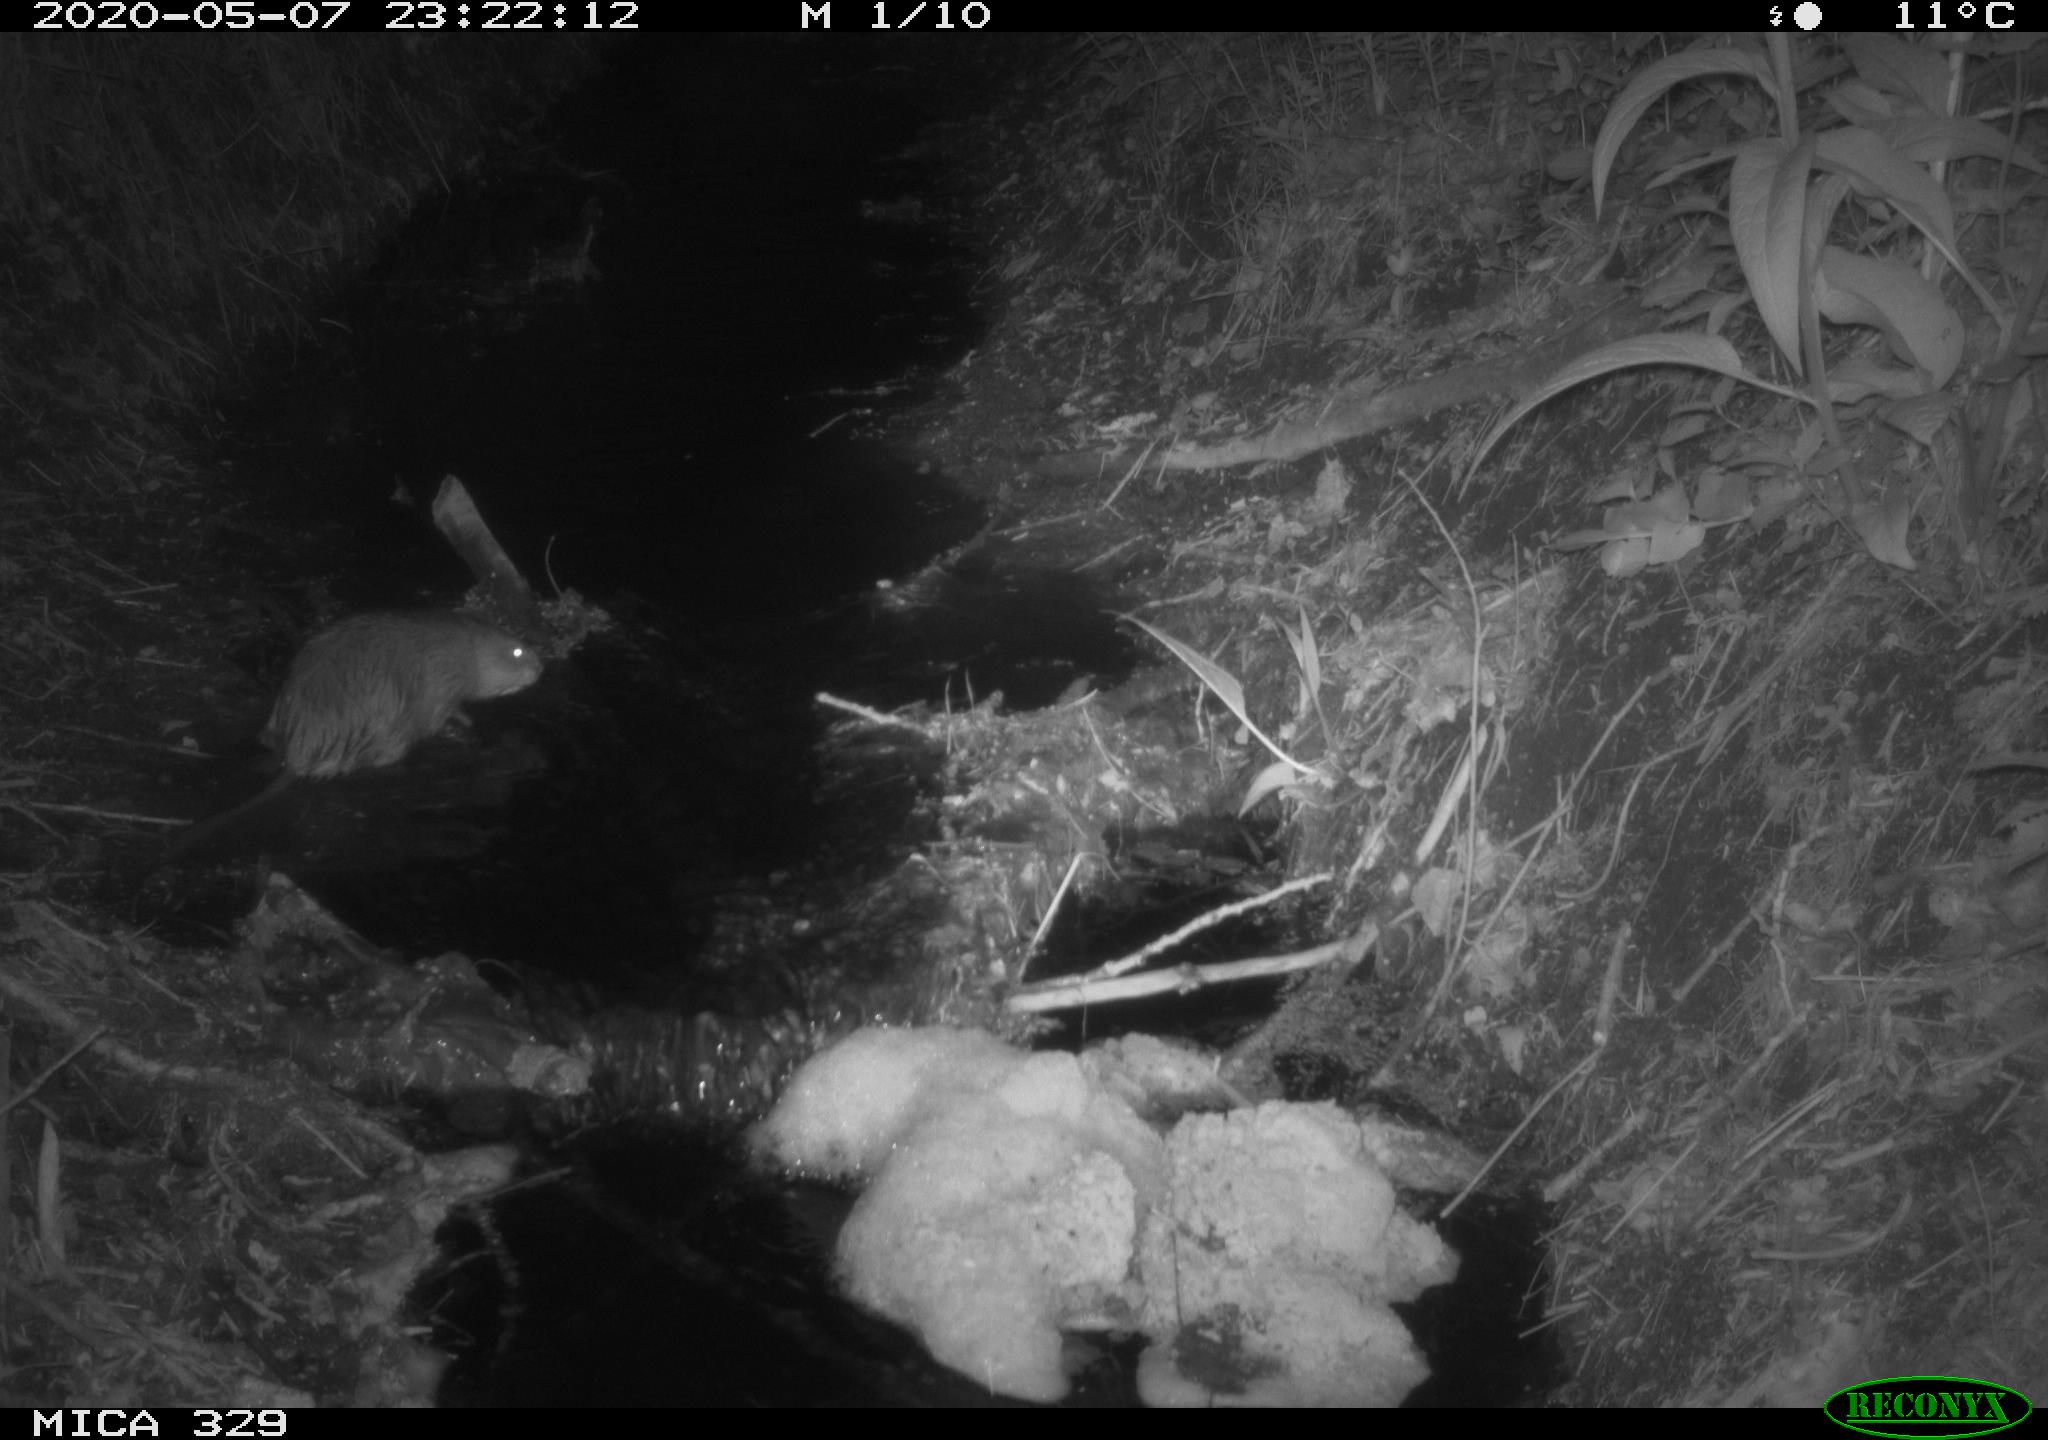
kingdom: Animalia
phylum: Chordata
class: Mammalia
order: Rodentia
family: Cricetidae
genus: Ondatra
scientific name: Ondatra zibethicus
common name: Muskrat
